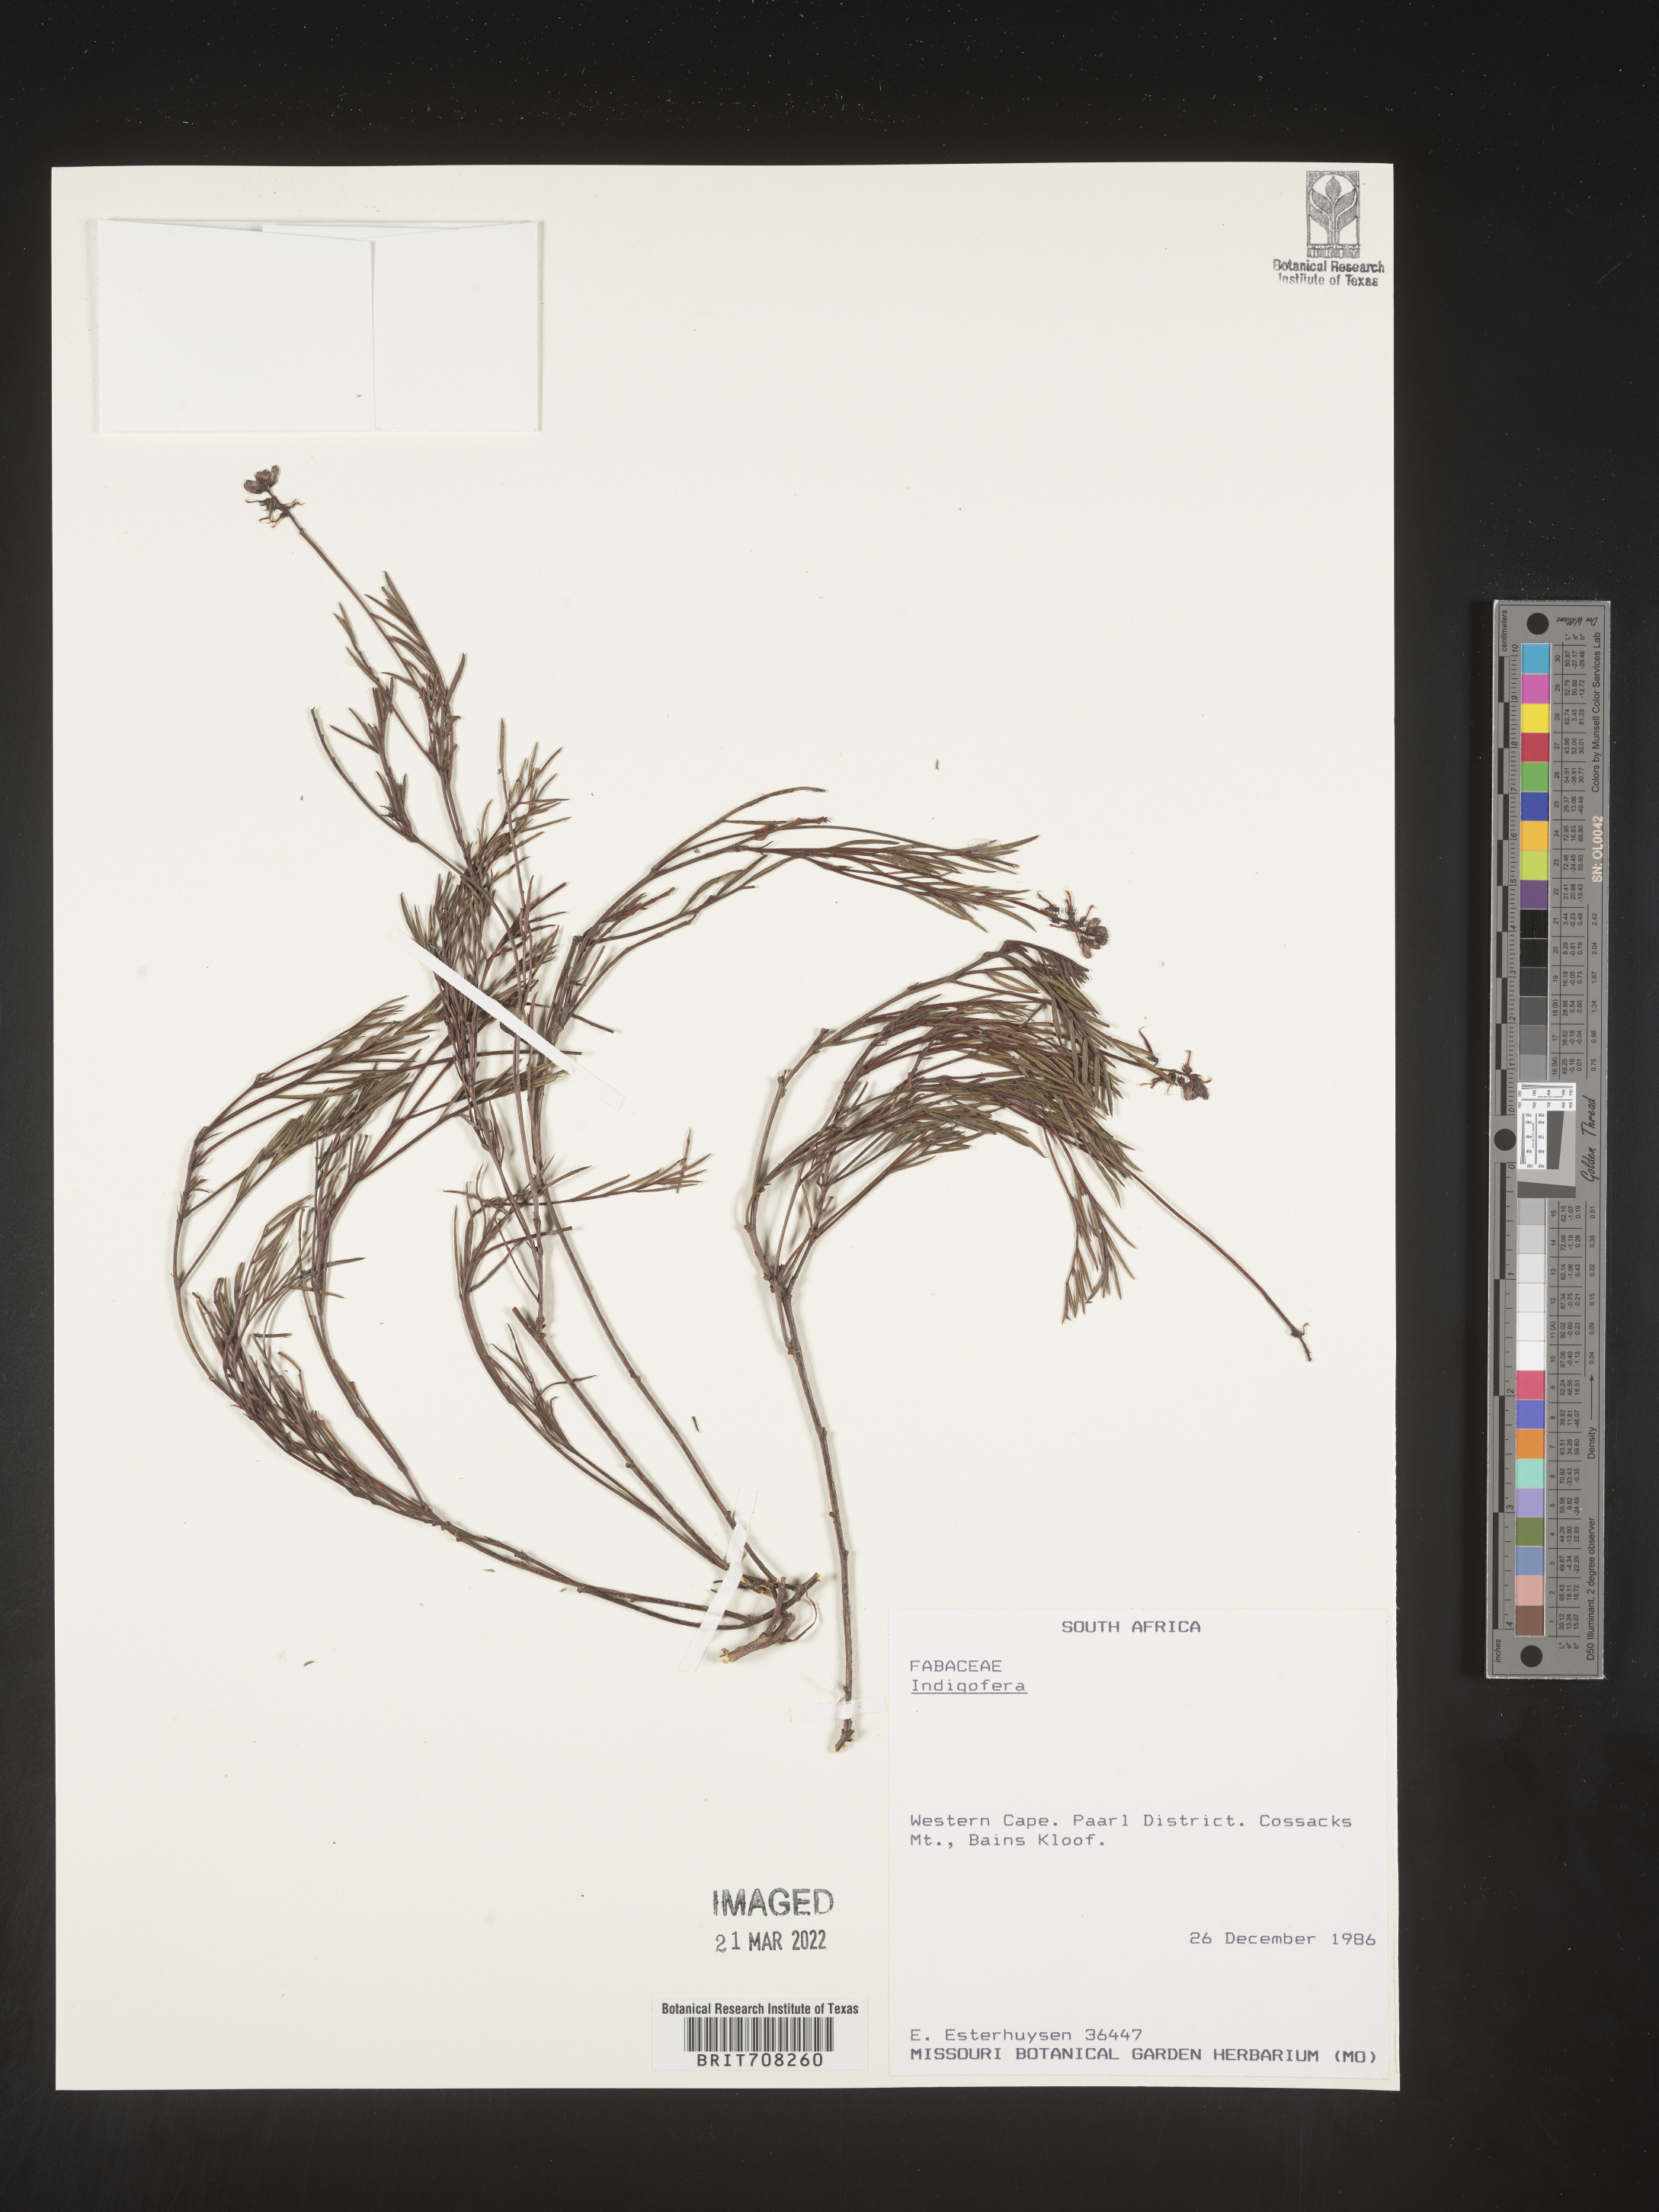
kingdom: Plantae
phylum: Tracheophyta
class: Magnoliopsida
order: Fabales
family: Fabaceae
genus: Indigofera
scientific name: Indigofera
